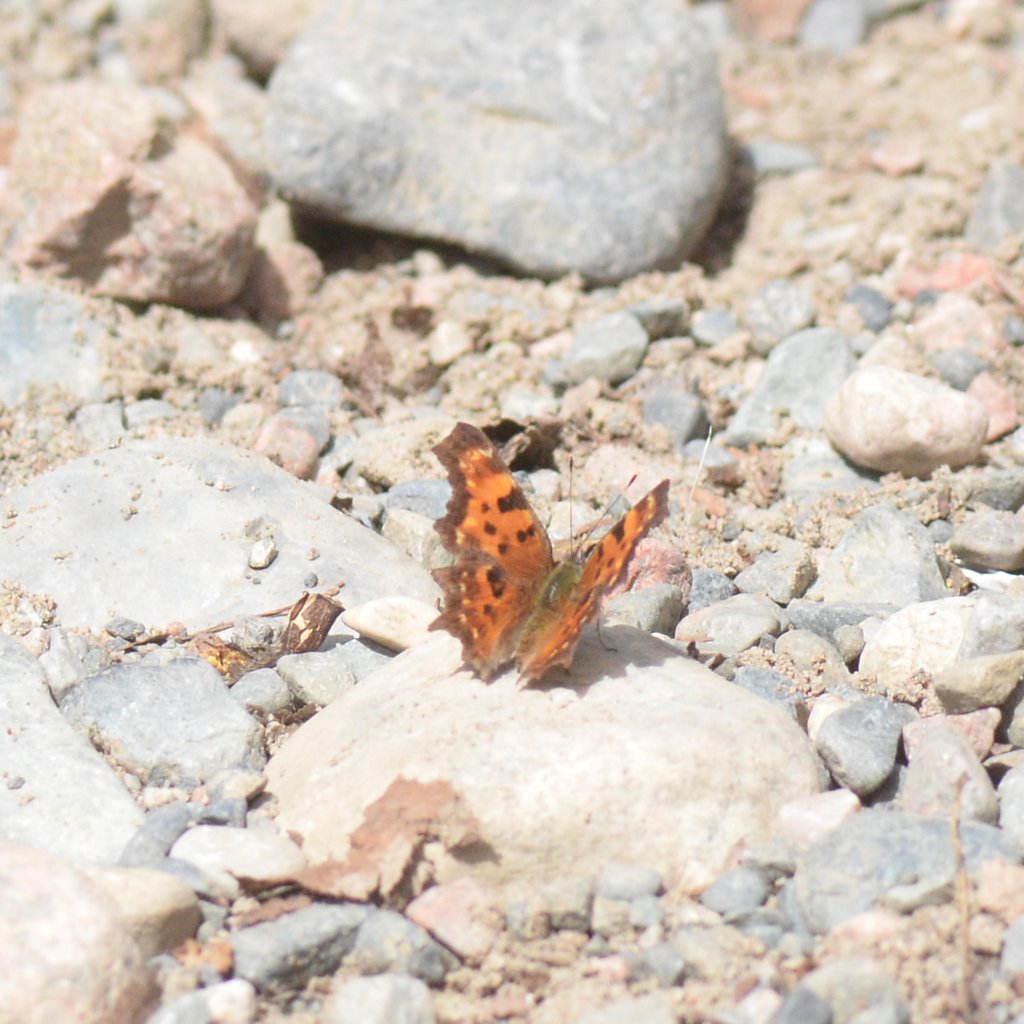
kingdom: Animalia
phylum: Arthropoda
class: Insecta
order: Lepidoptera
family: Nymphalidae
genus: Polygonia
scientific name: Polygonia faunus
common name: Green Comma
